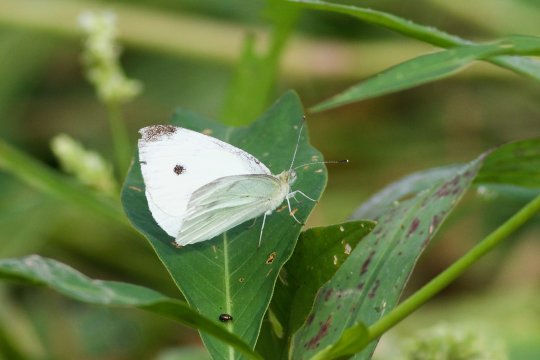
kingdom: Animalia
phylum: Arthropoda
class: Insecta
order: Lepidoptera
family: Pieridae
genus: Pieris
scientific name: Pieris rapae
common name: Cabbage White
